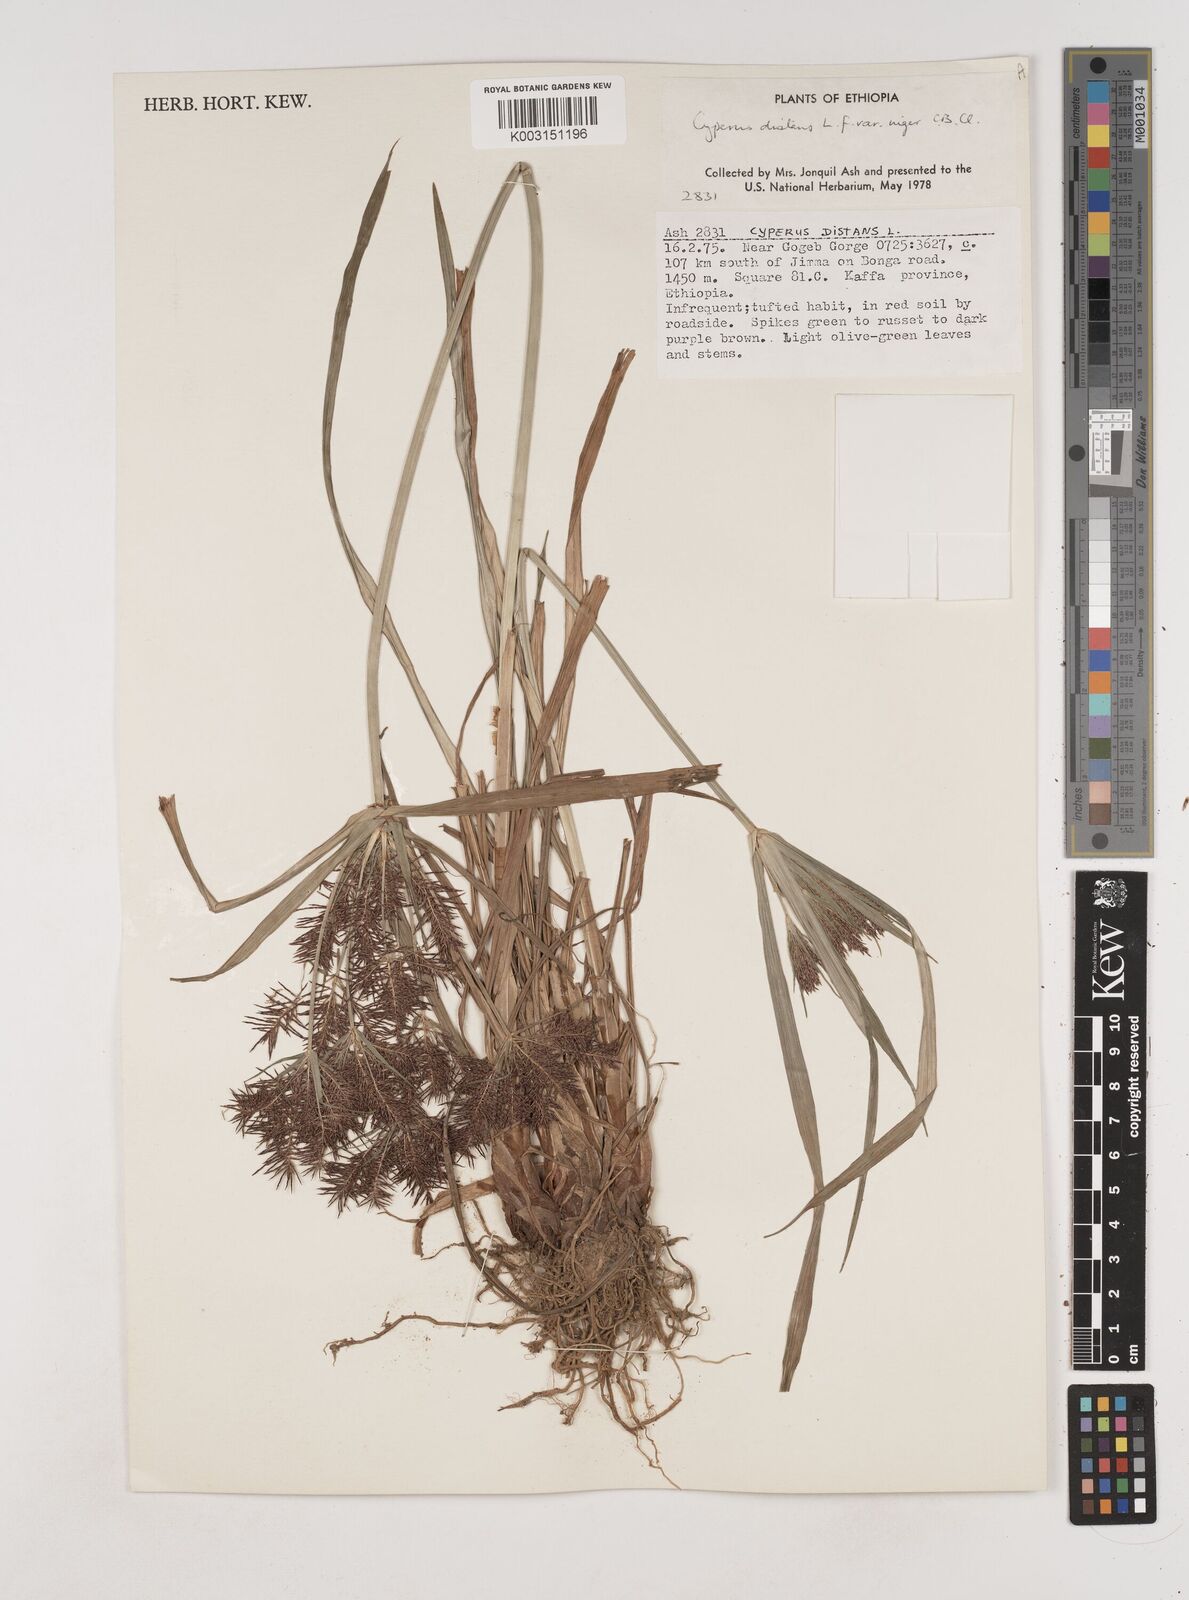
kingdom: Plantae
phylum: Tracheophyta
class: Liliopsida
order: Poales
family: Cyperaceae
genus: Cyperus
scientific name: Cyperus distans
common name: Slender cyperus
